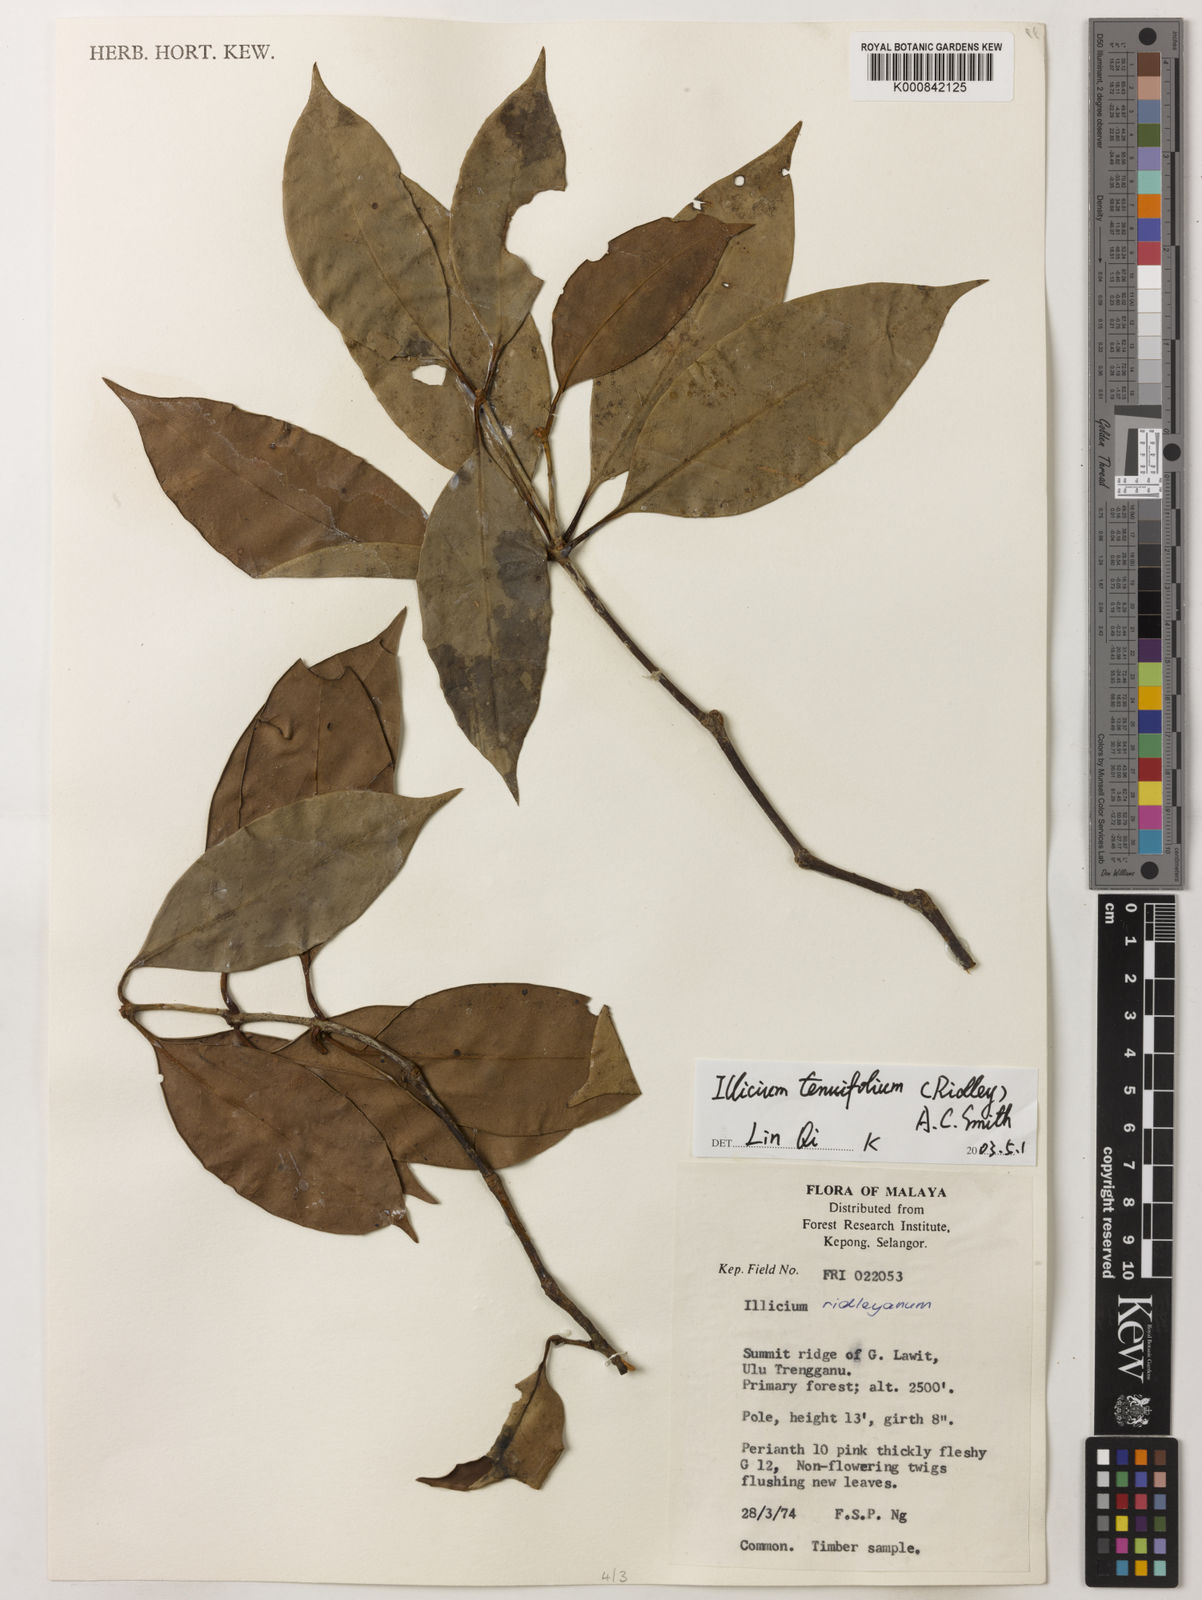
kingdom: Plantae
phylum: Tracheophyta
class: Magnoliopsida
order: Austrobaileyales
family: Schisandraceae
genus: Illicium
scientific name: Illicium tenuifolium
